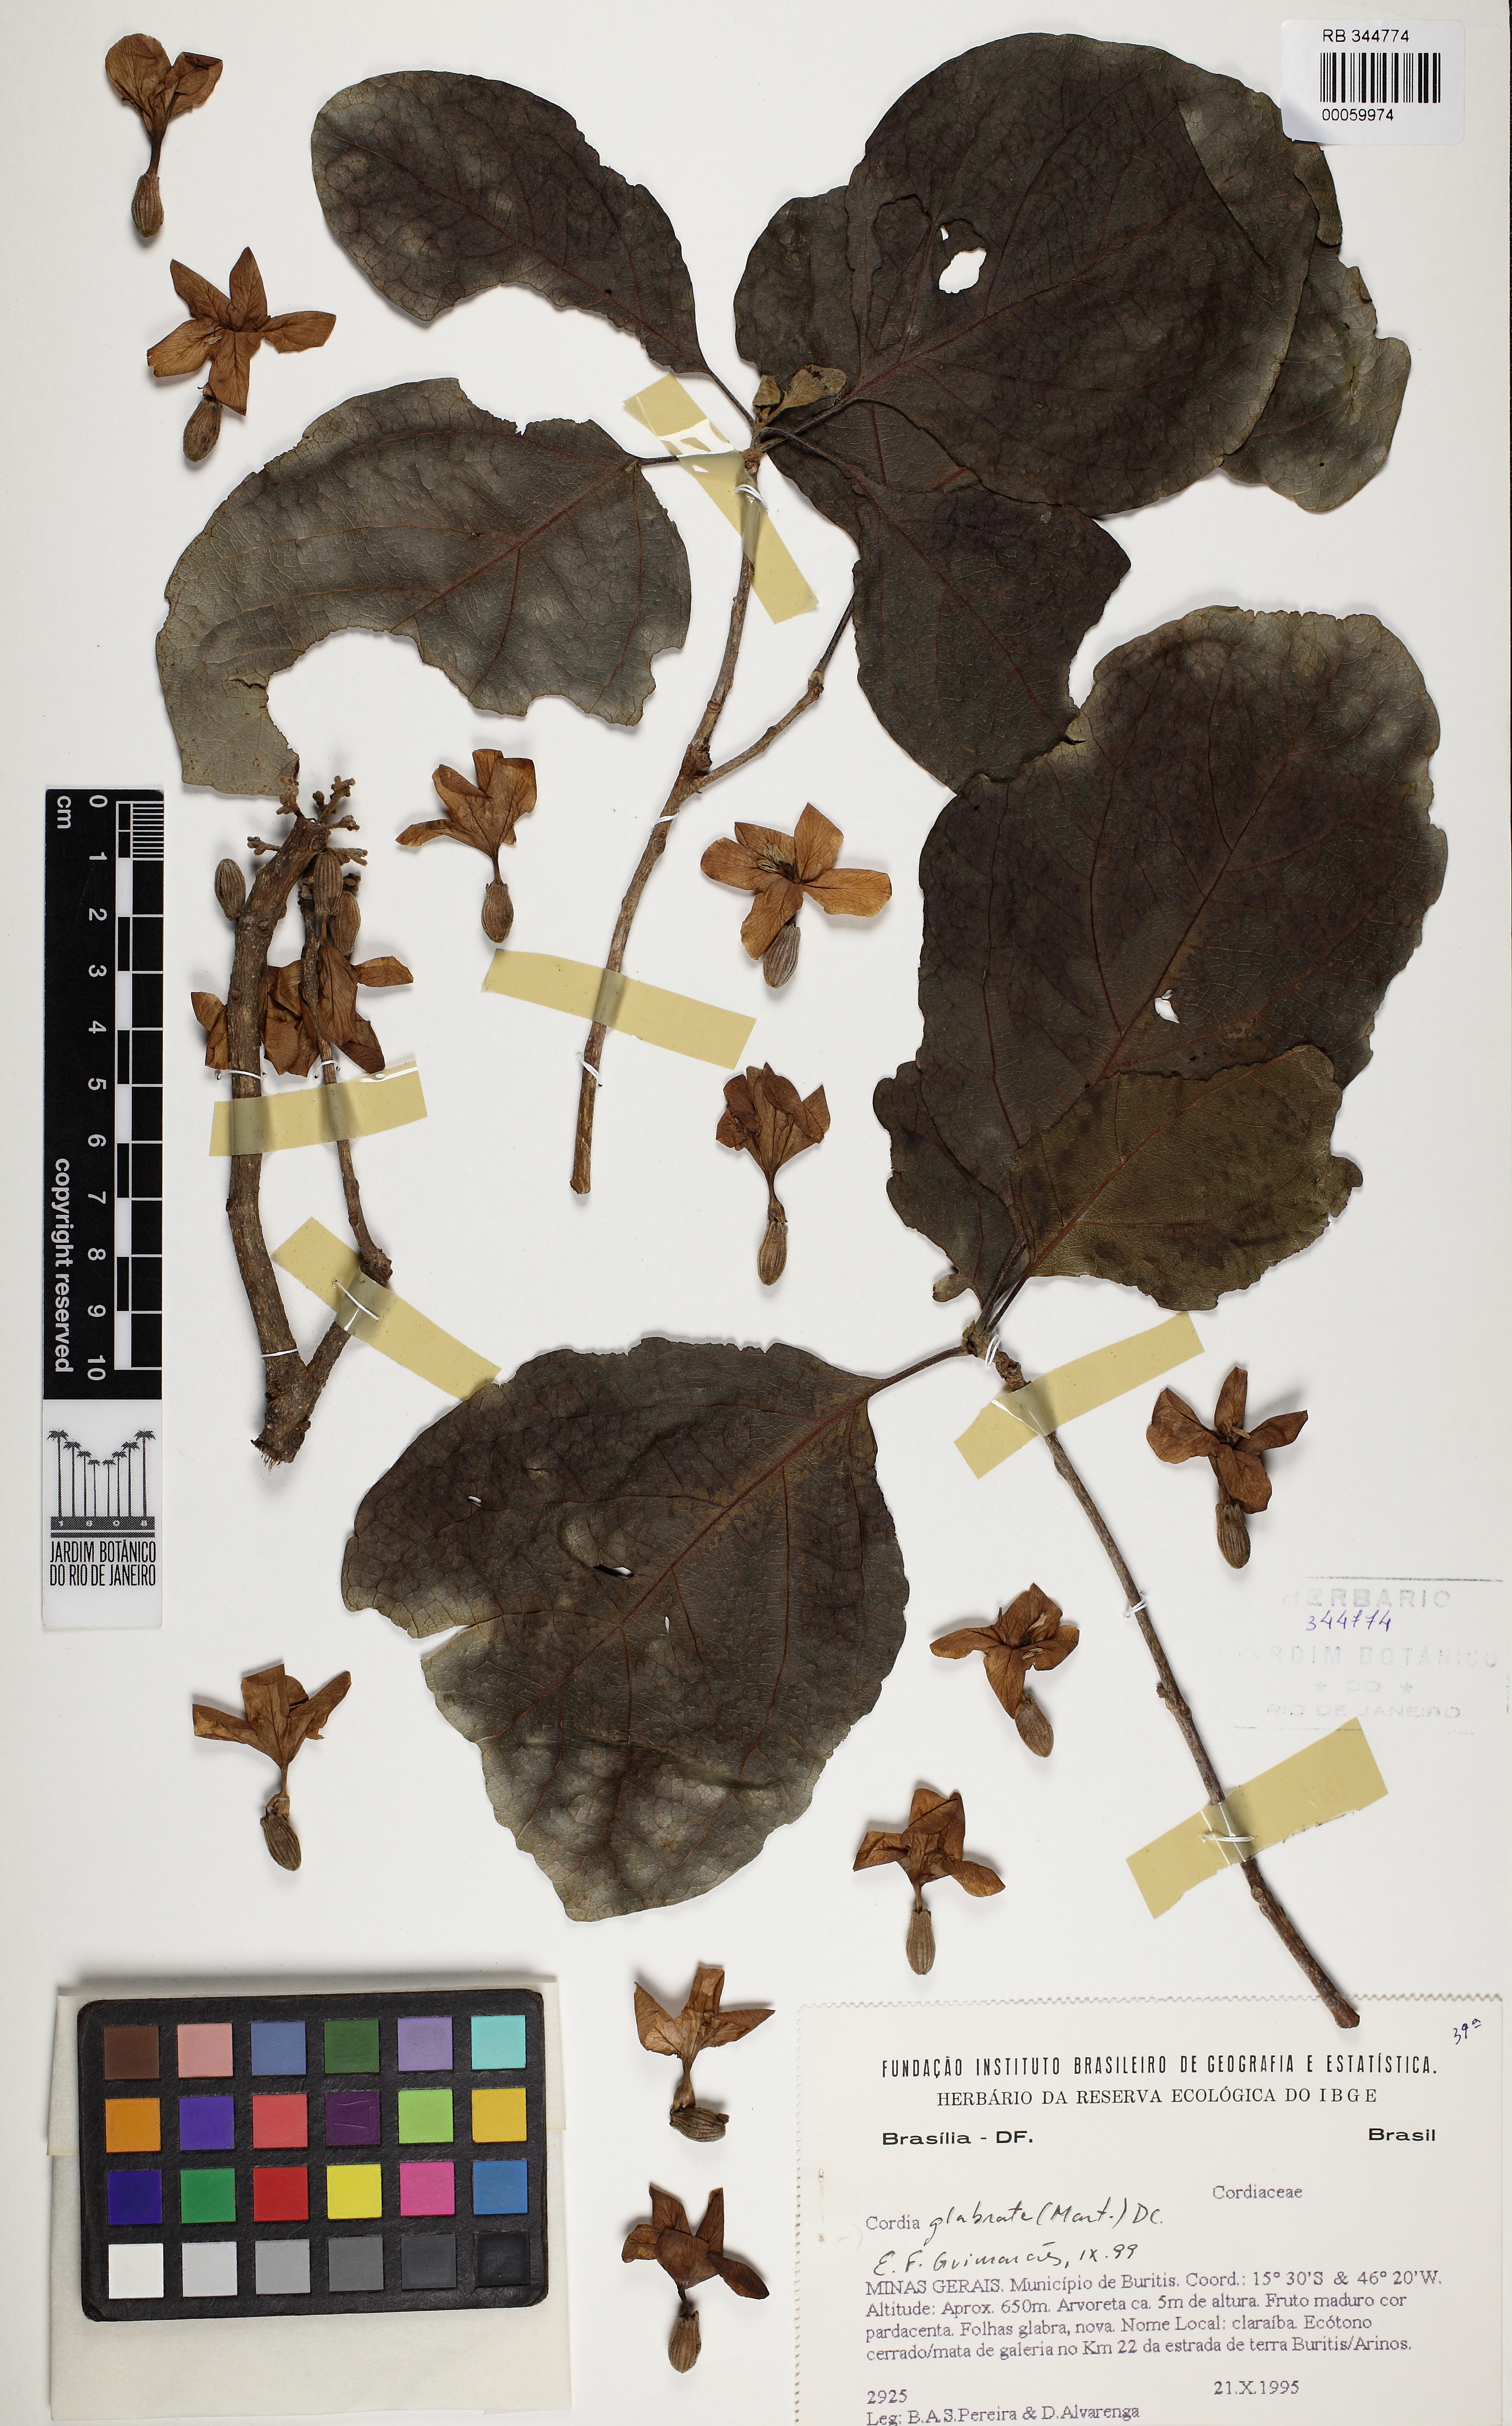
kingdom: Plantae
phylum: Tracheophyta
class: Magnoliopsida
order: Boraginales
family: Cordiaceae
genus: Cordia
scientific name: Cordia glabrata
